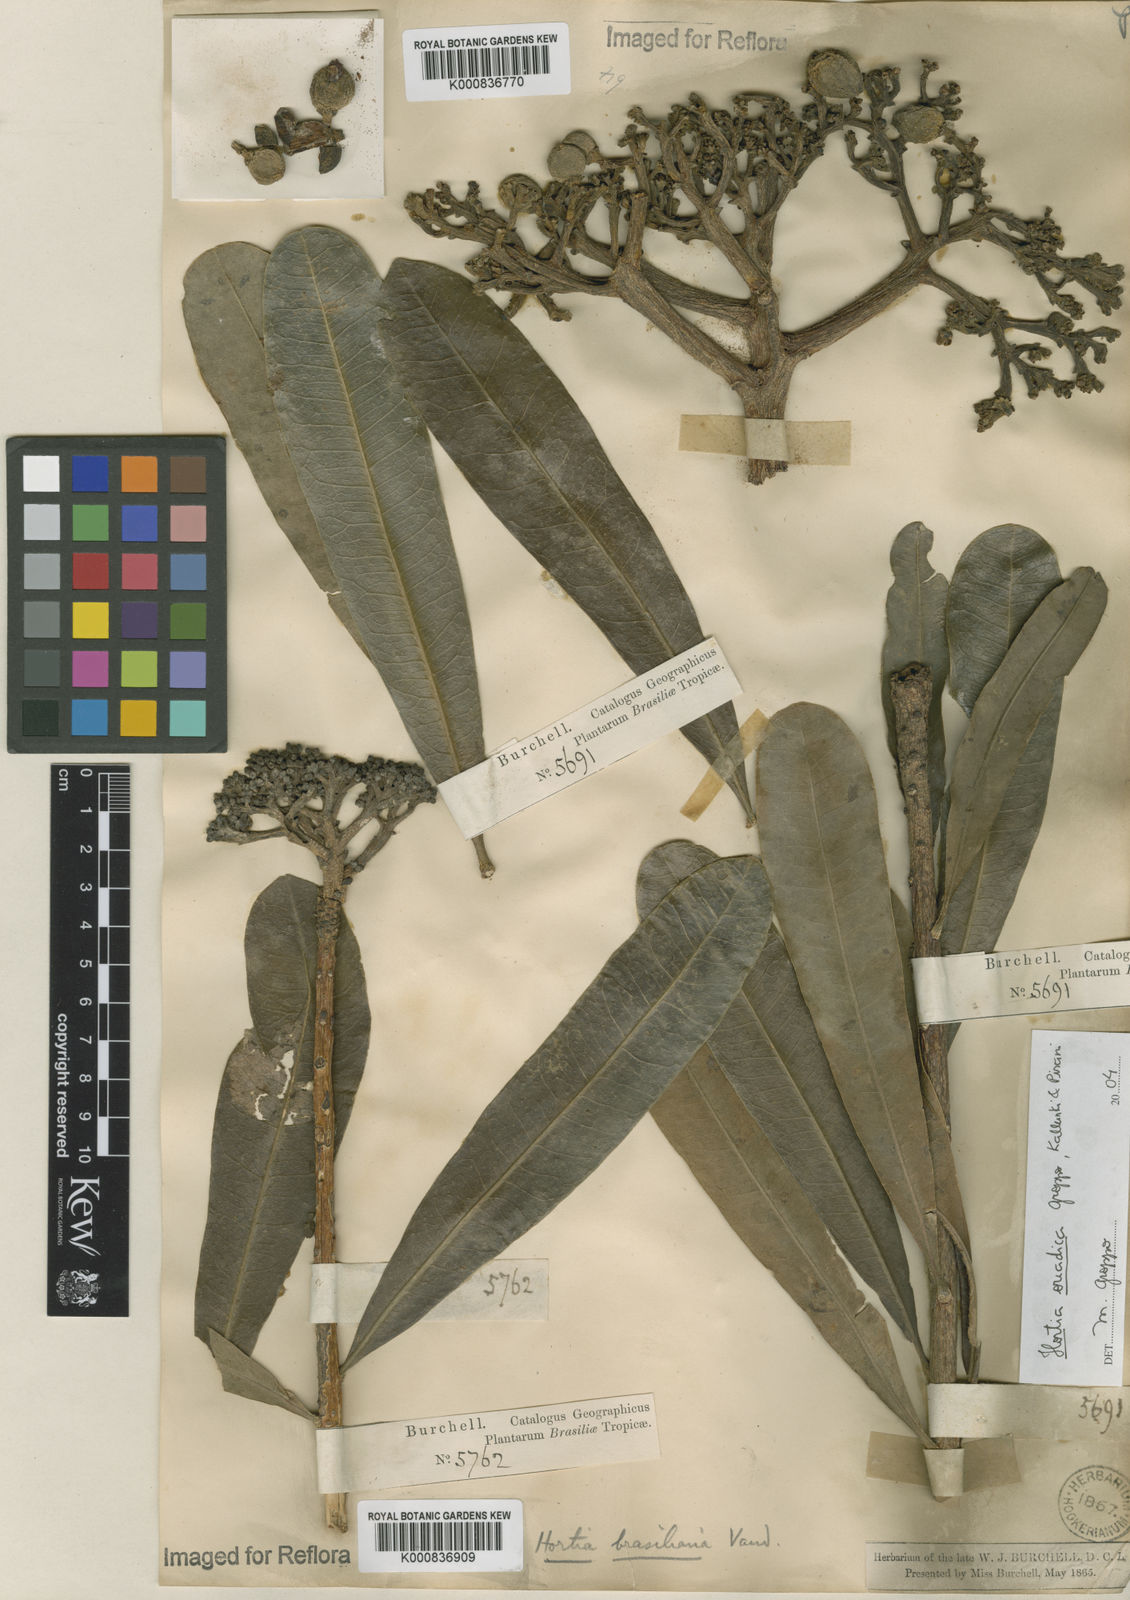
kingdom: Plantae
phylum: Tracheophyta
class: Magnoliopsida
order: Sapindales
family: Rutaceae
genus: Hortia
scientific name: Hortia brasiliana
